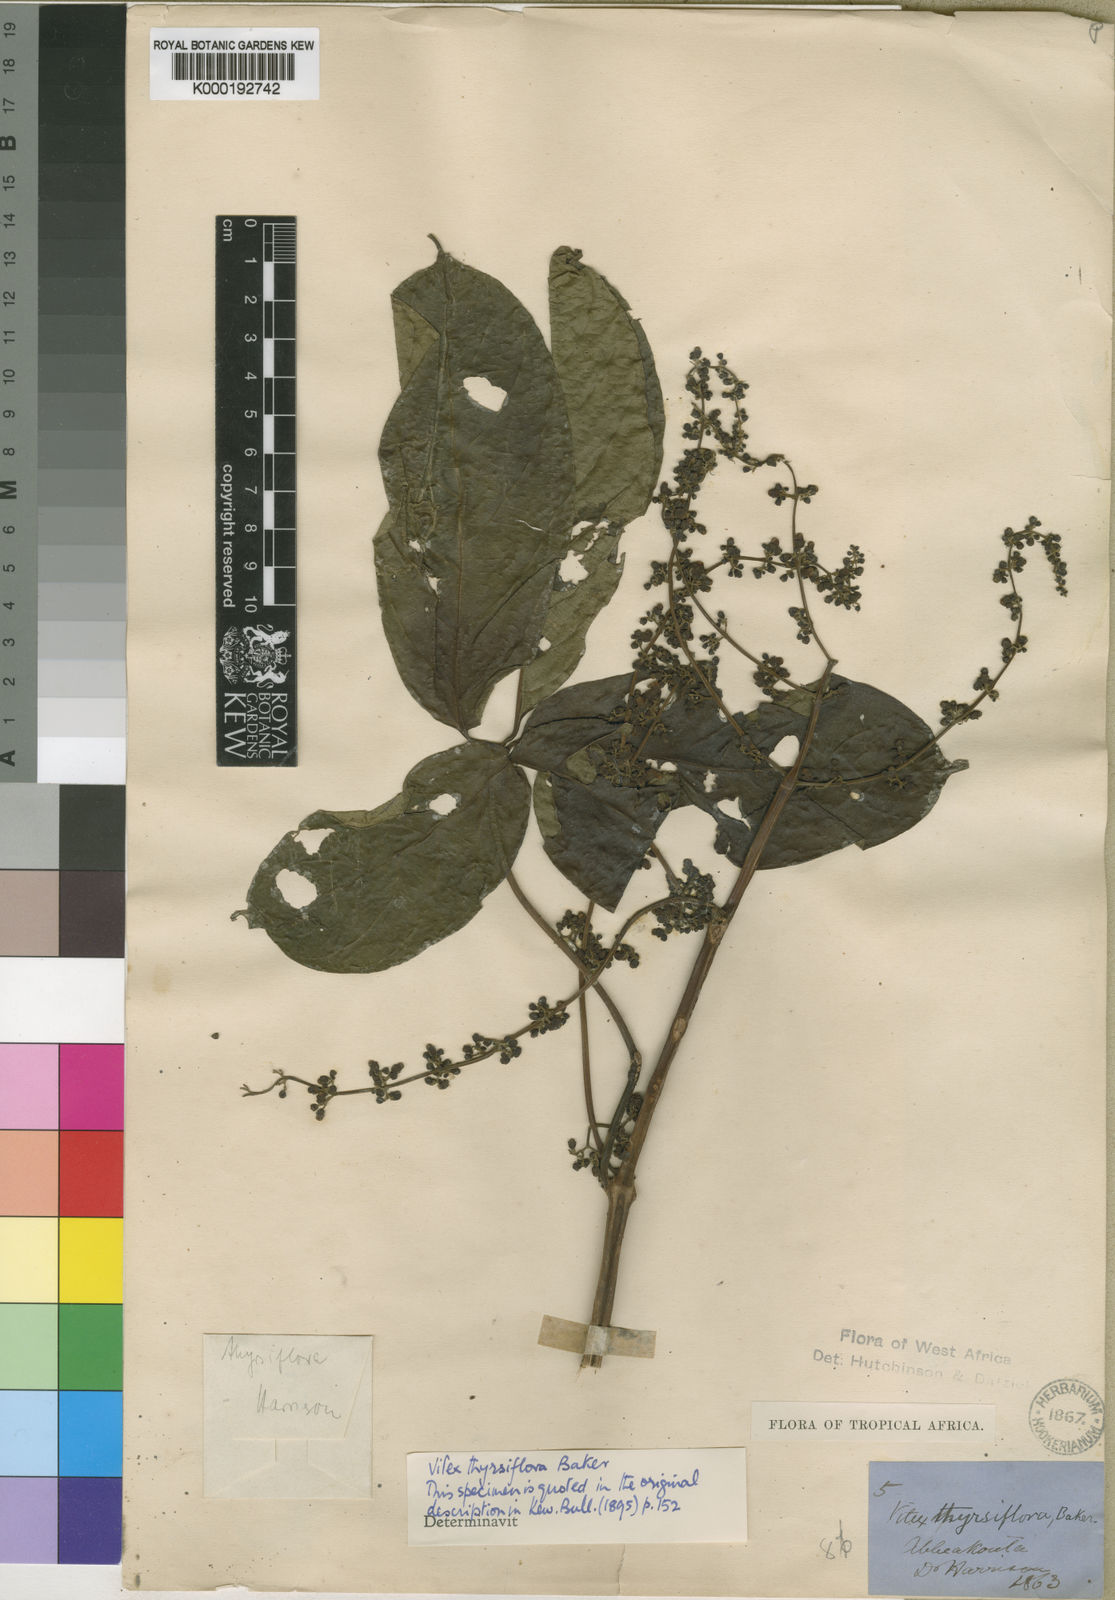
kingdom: Plantae
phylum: Tracheophyta
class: Magnoliopsida
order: Lamiales
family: Lamiaceae
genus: Vitex
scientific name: Vitex thyrsiflora
